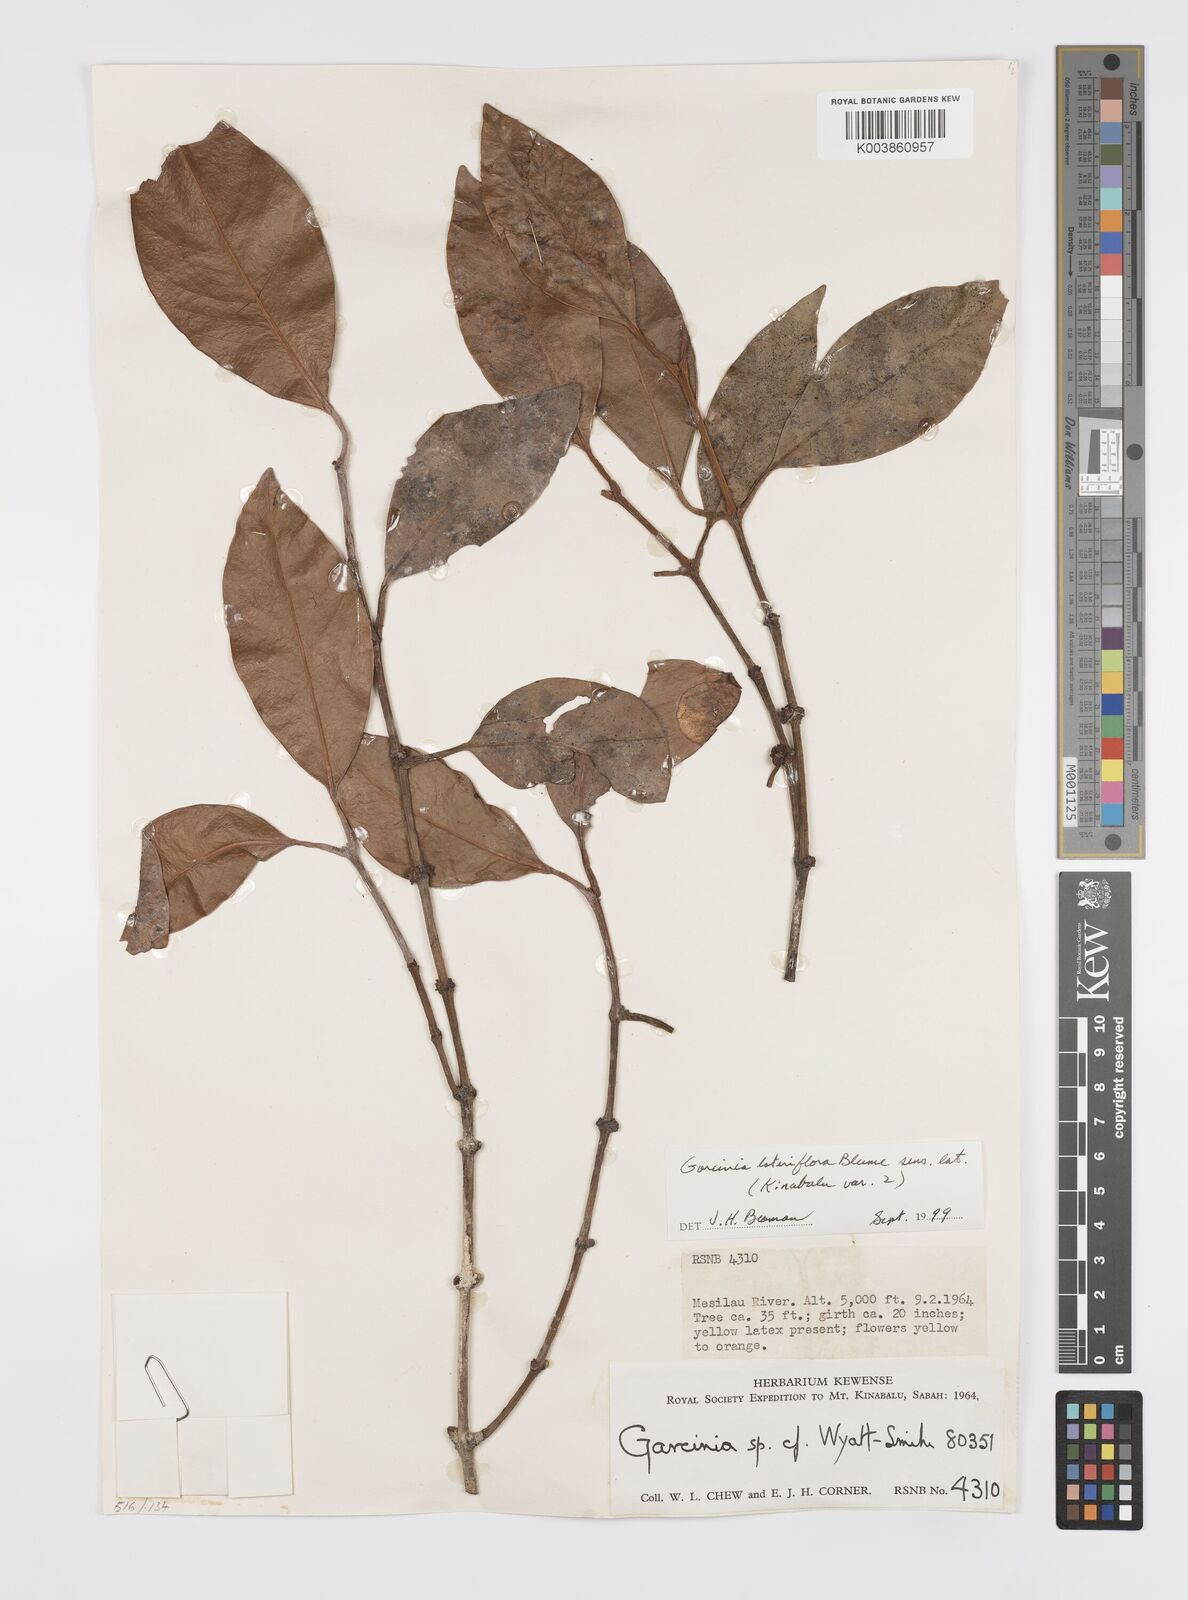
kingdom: Plantae
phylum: Tracheophyta
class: Magnoliopsida
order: Malpighiales
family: Clusiaceae
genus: Garcinia
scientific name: Garcinia lateriflora
